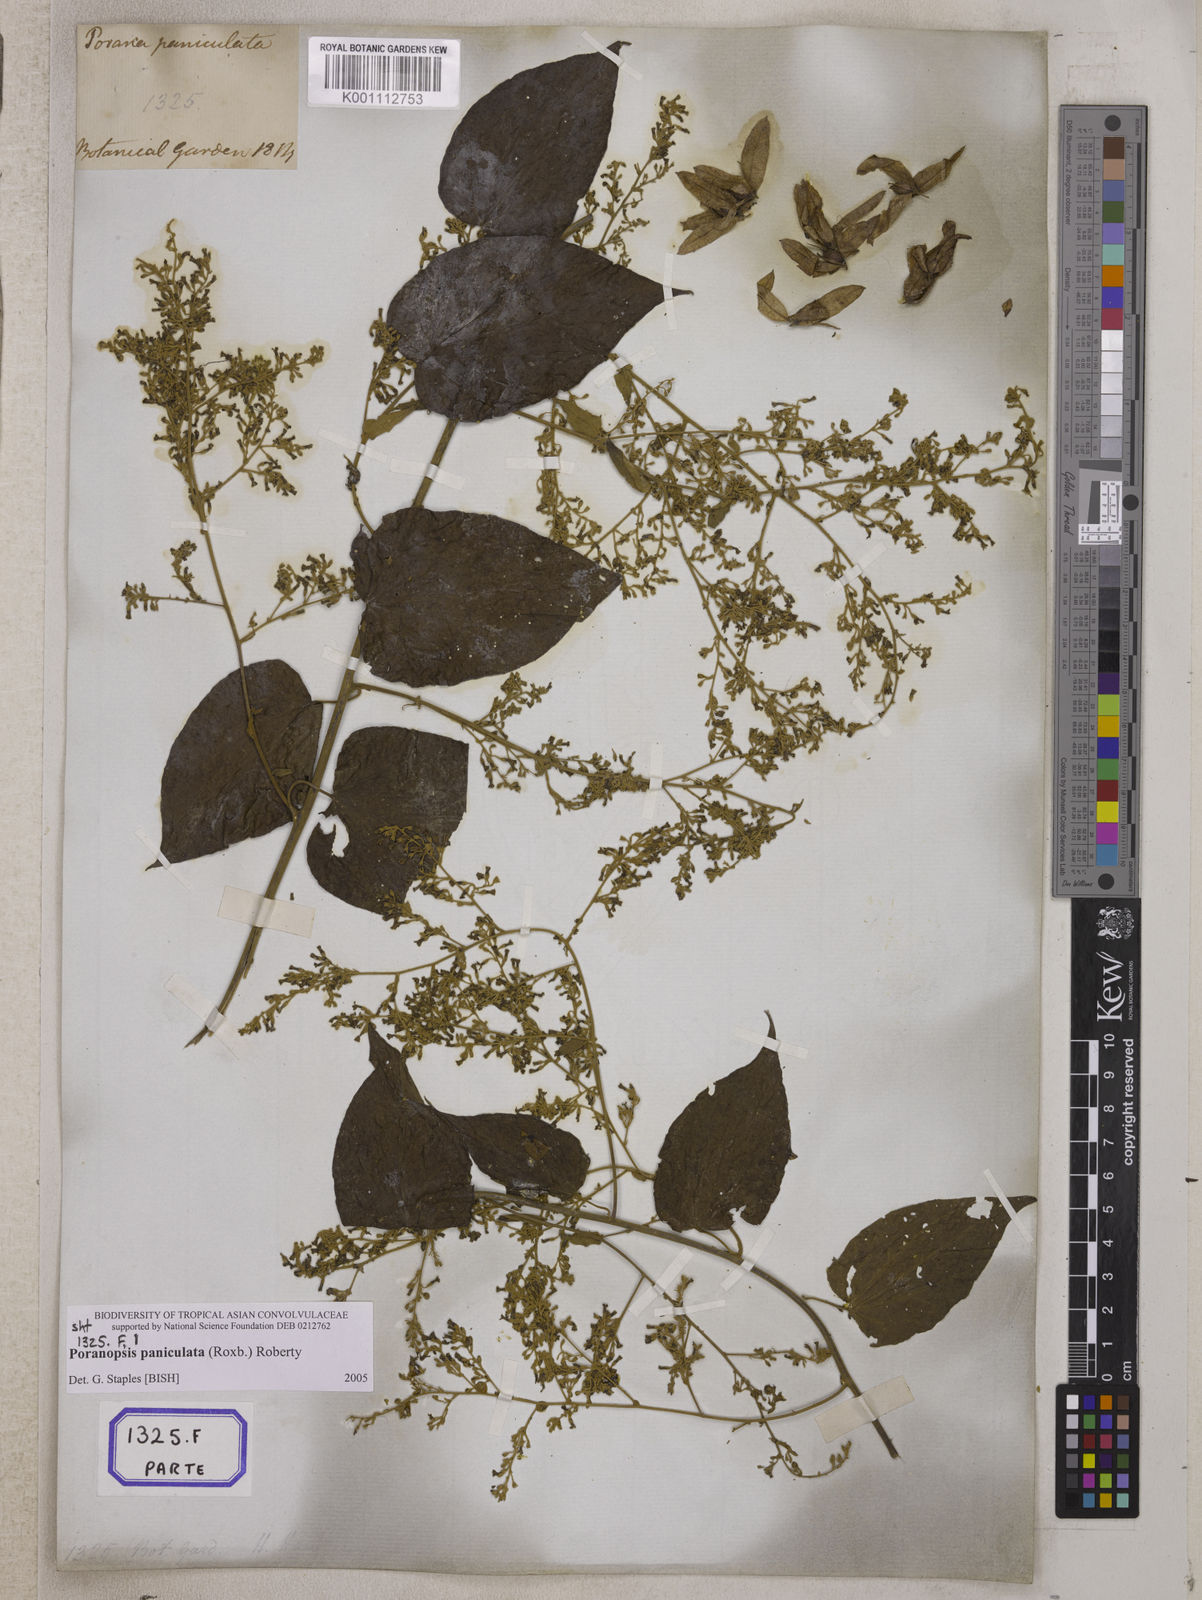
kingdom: Plantae
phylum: Tracheophyta
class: Magnoliopsida
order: Solanales
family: Convolvulaceae
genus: Poranopsis
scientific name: Poranopsis paniculata
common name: Bridal bouquet
